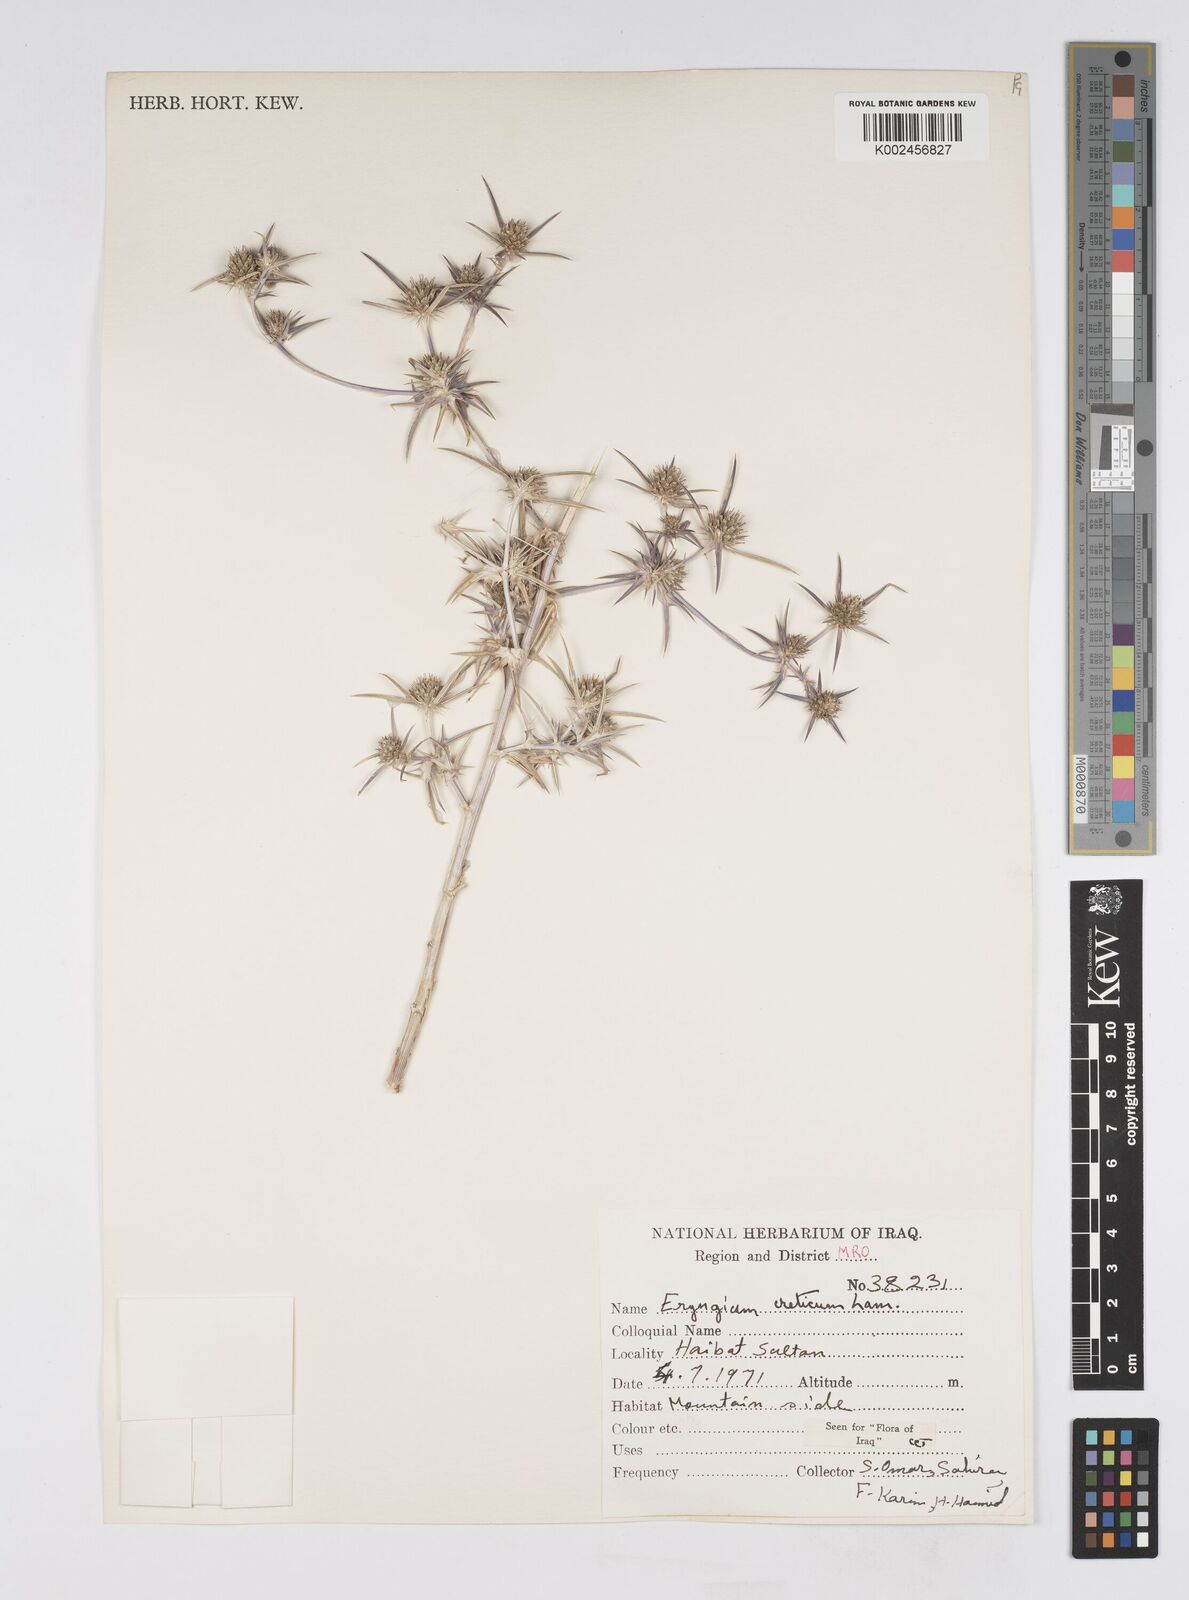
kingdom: Plantae
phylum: Tracheophyta
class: Magnoliopsida
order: Apiales
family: Apiaceae
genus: Eryngium
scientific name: Eryngium creticum
